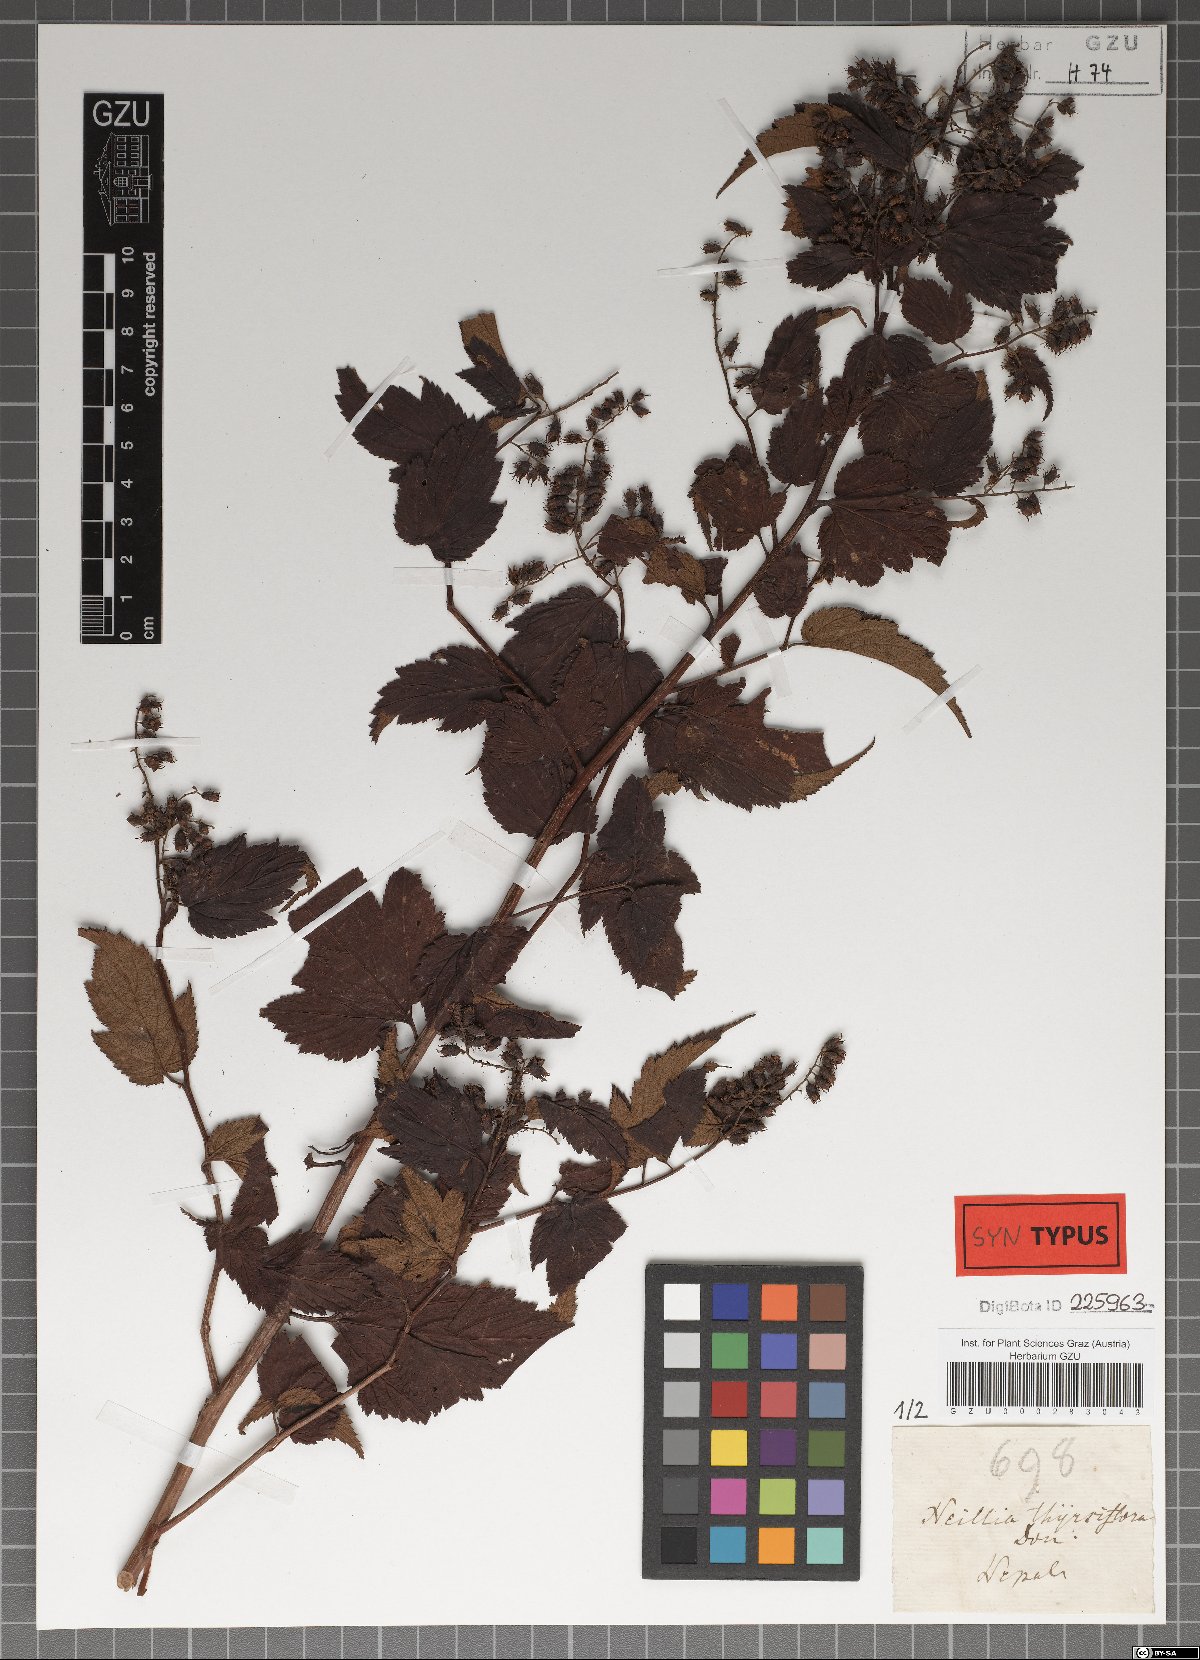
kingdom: Plantae
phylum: Tracheophyta
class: Magnoliopsida
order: Rosales
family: Rosaceae
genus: Neillia
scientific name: Neillia thyrsiflora
